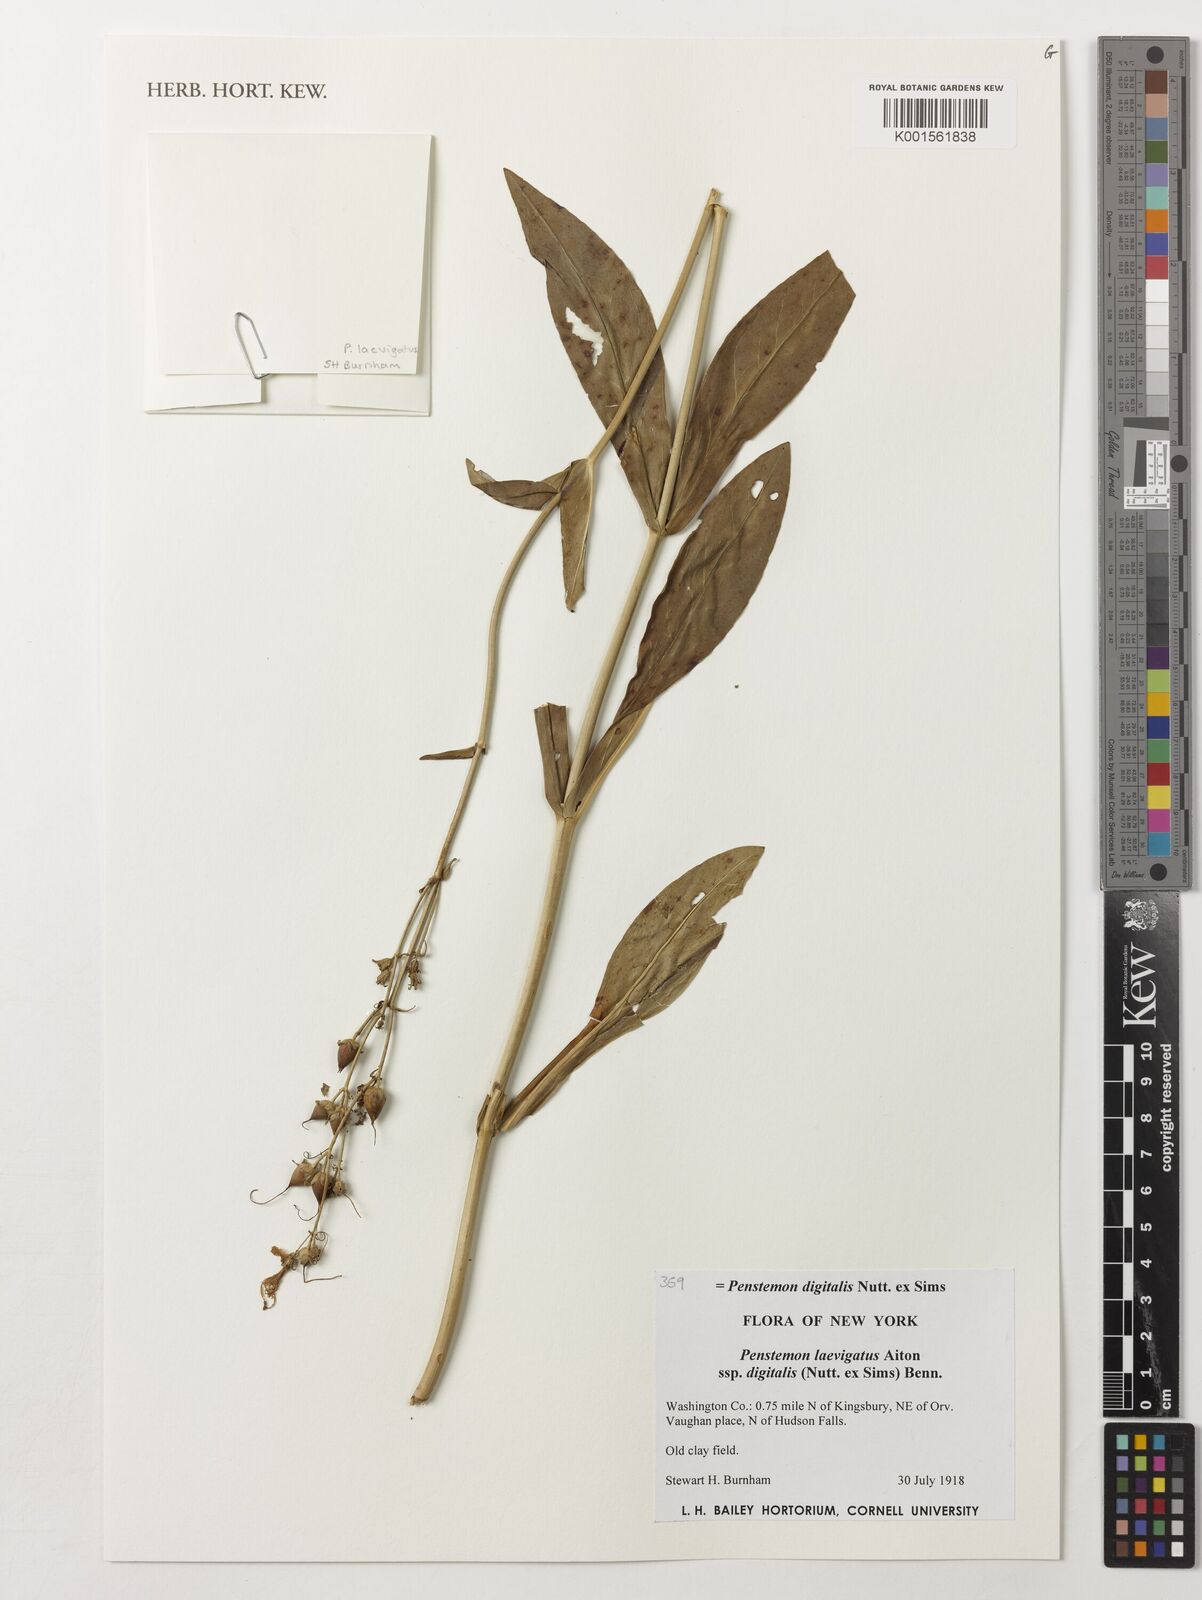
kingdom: Plantae
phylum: Tracheophyta
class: Magnoliopsida
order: Lamiales
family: Plantaginaceae
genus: Penstemon
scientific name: Penstemon
